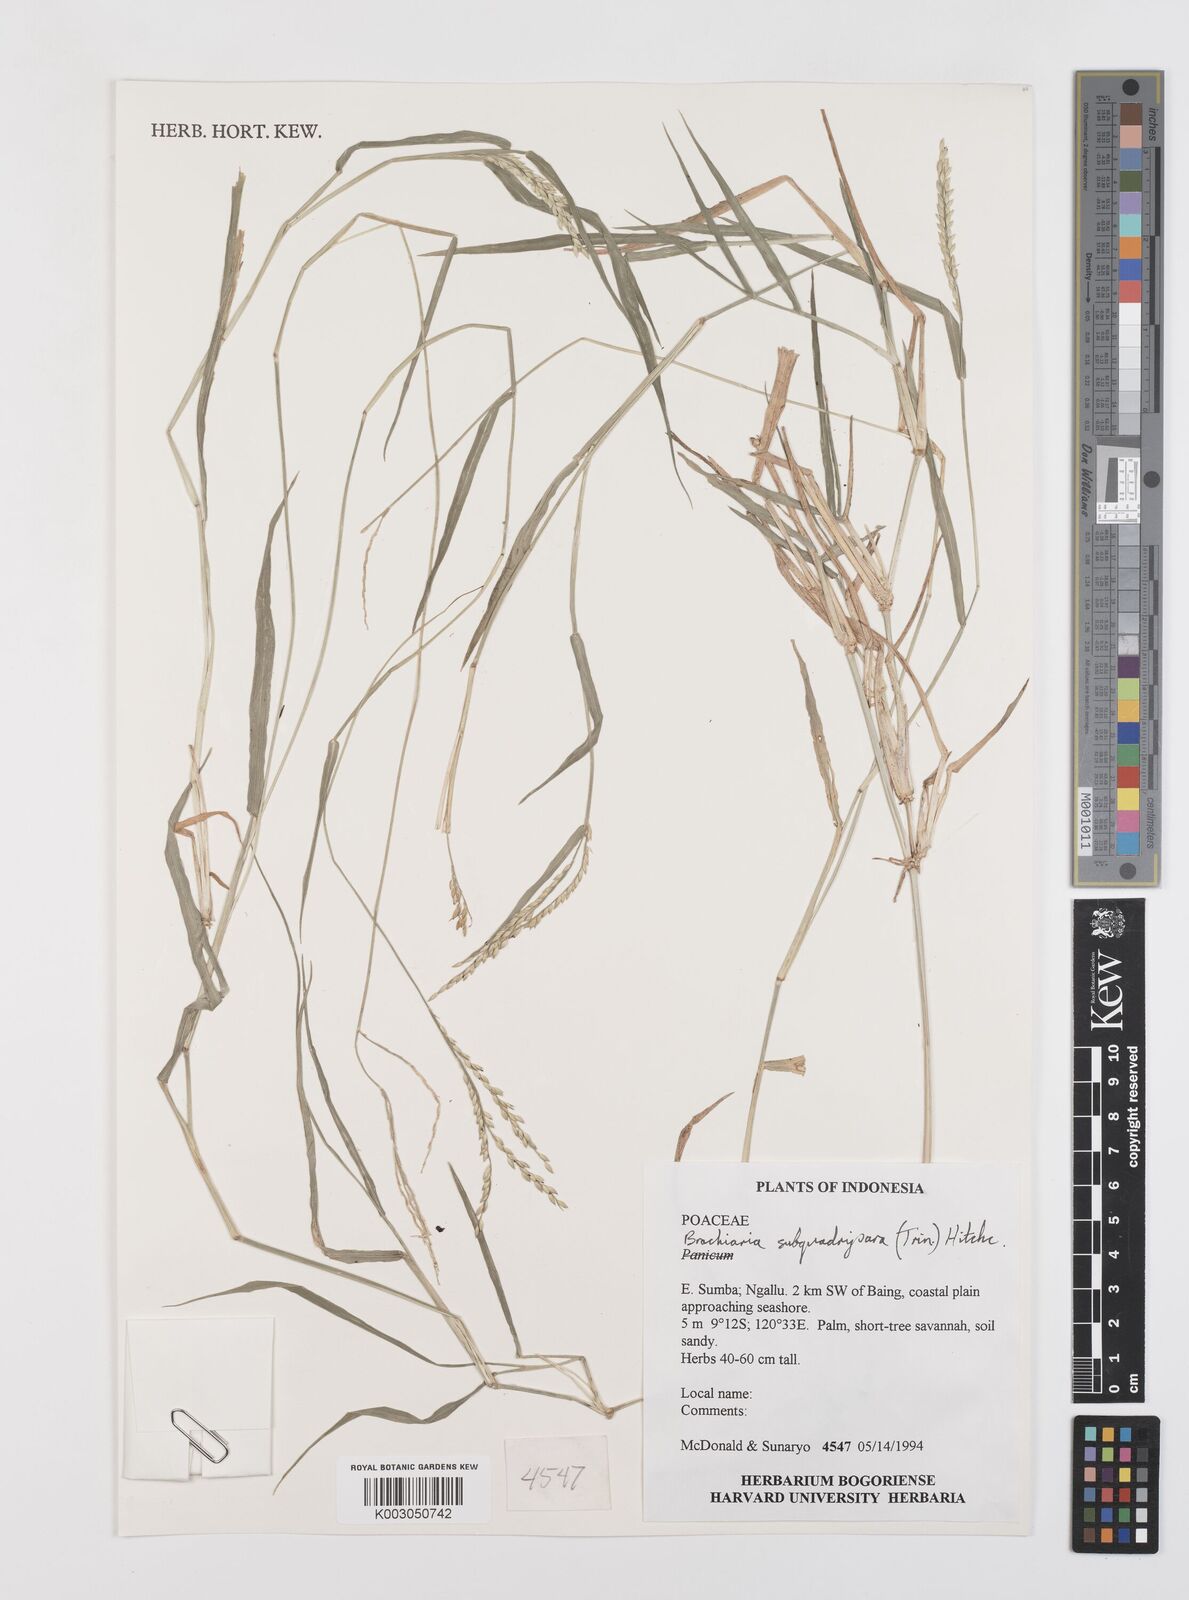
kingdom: Plantae
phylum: Tracheophyta
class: Liliopsida
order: Poales
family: Poaceae
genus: Urochloa
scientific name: Urochloa subquadripara
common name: Armgrass millet
